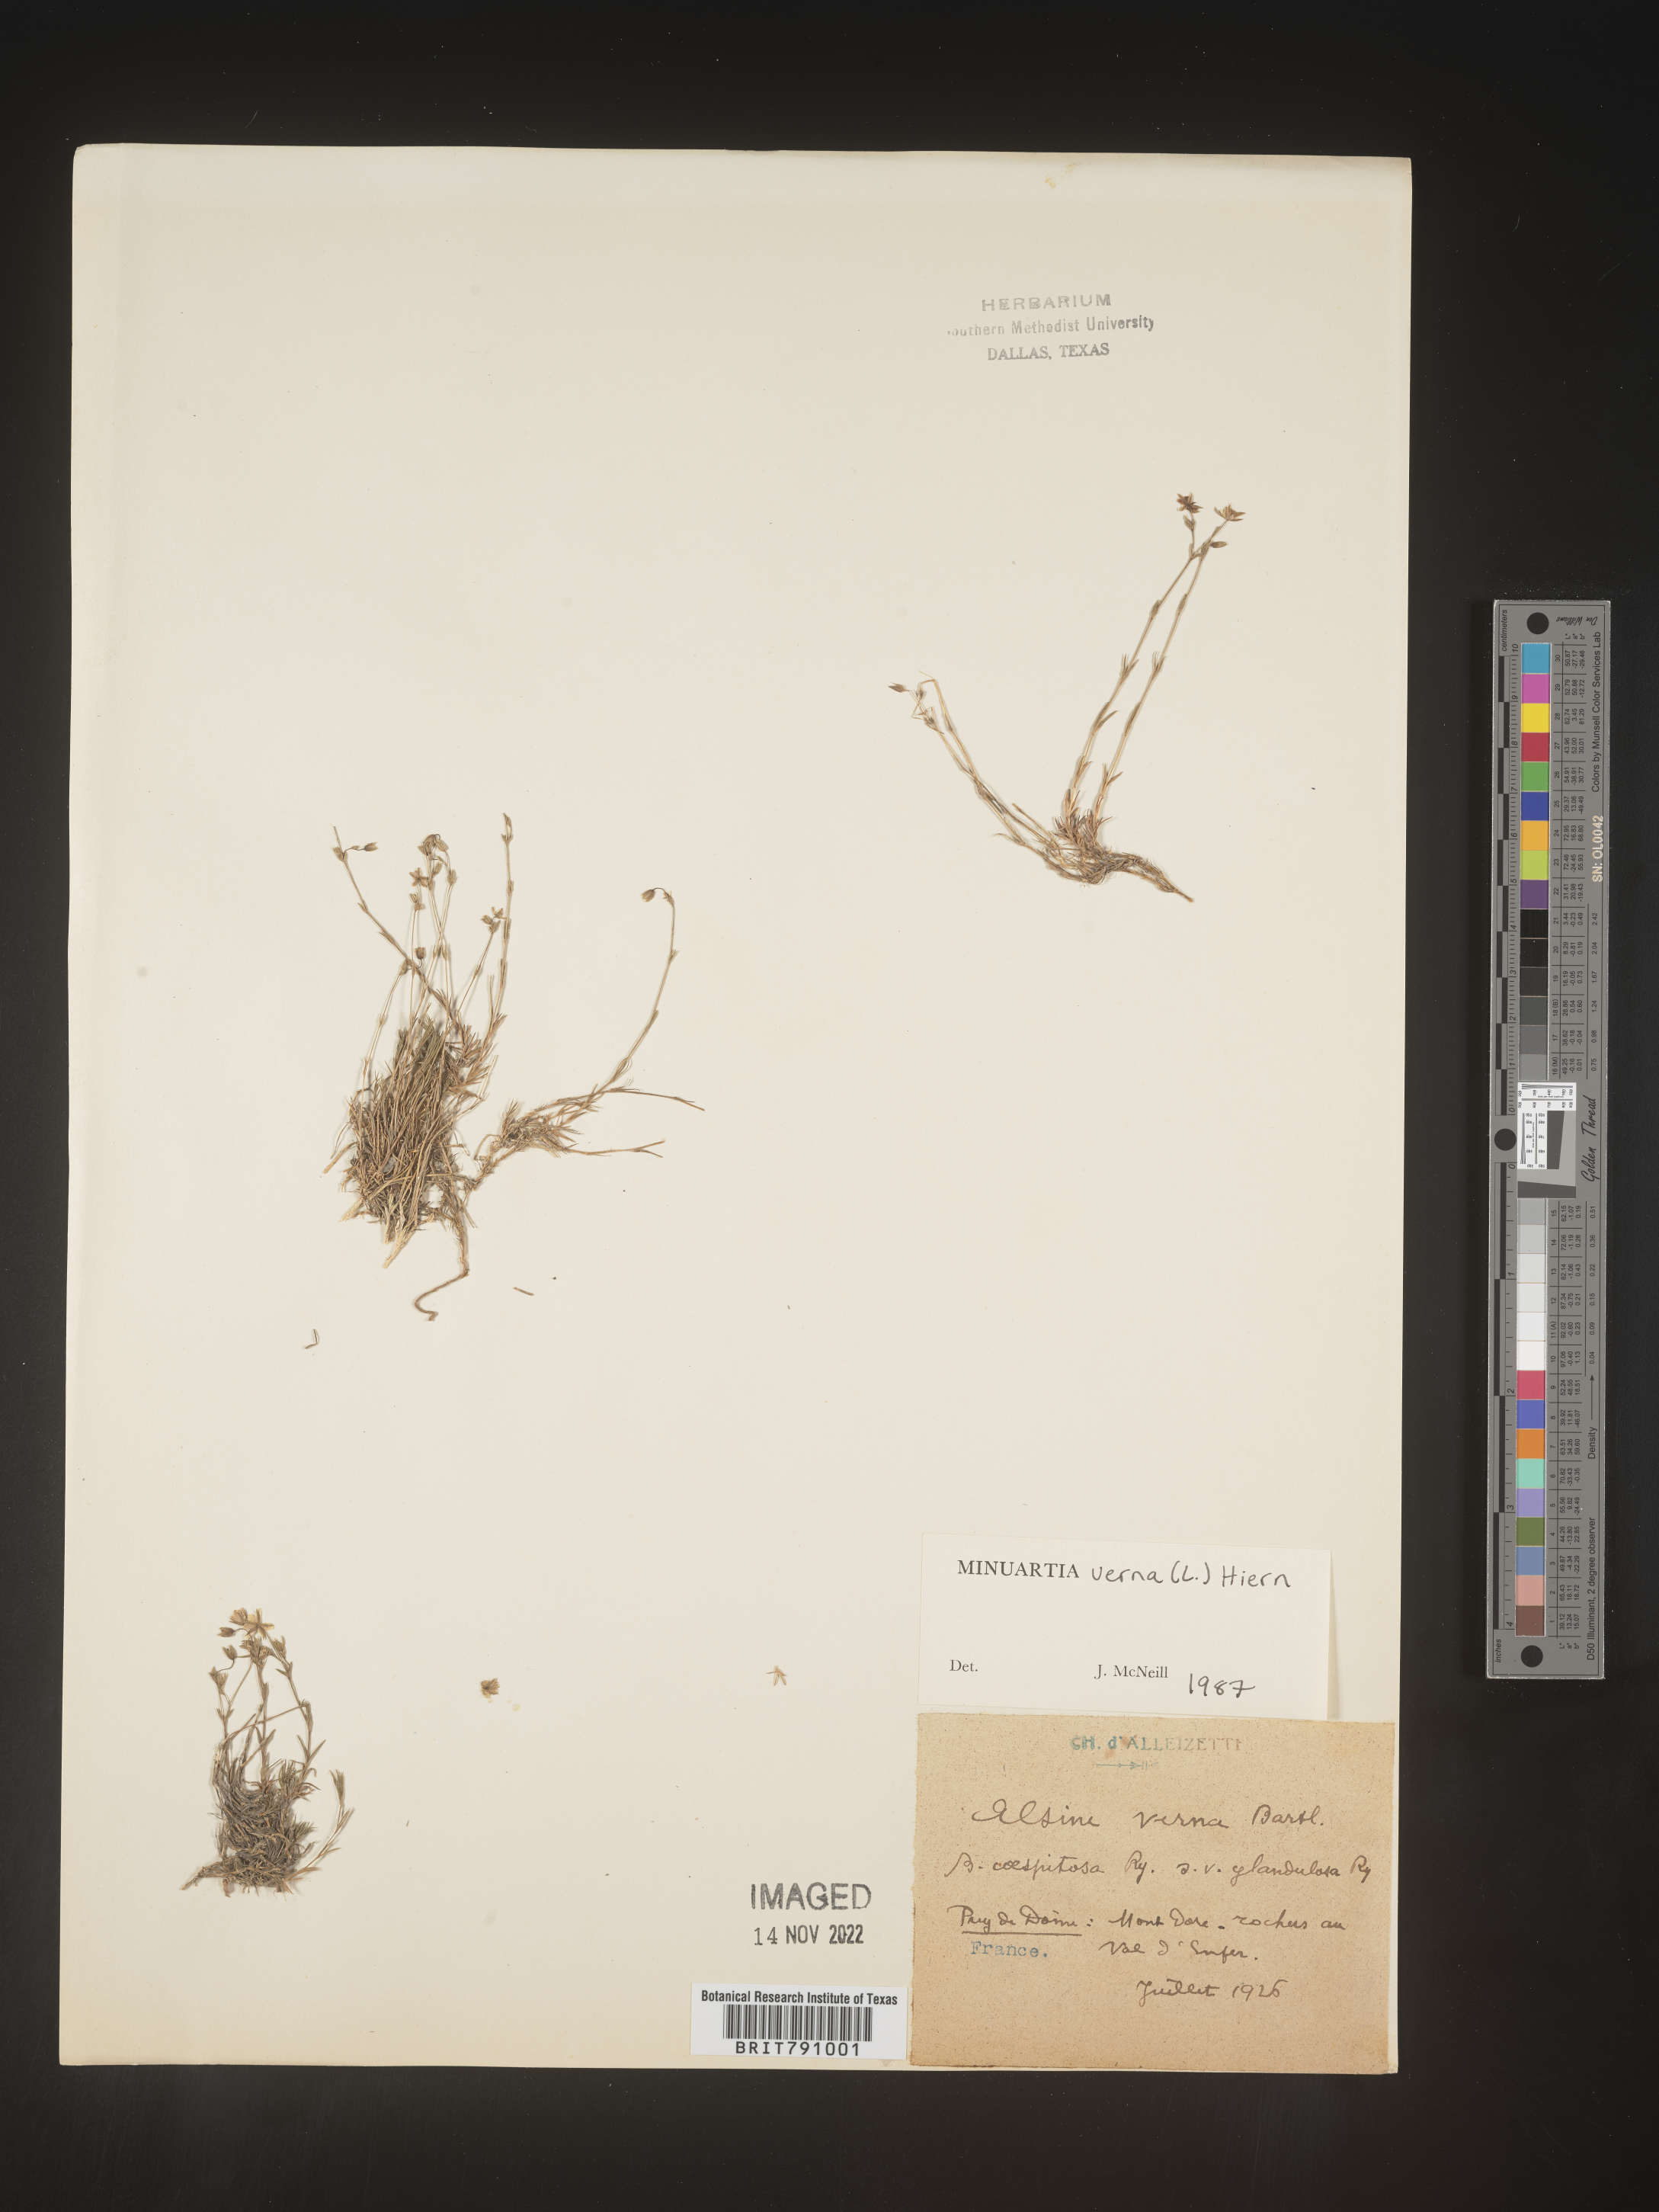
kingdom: Plantae
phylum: Tracheophyta
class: Magnoliopsida
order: Caryophyllales
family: Caryophyllaceae
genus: Minuartia
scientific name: Minuartia
